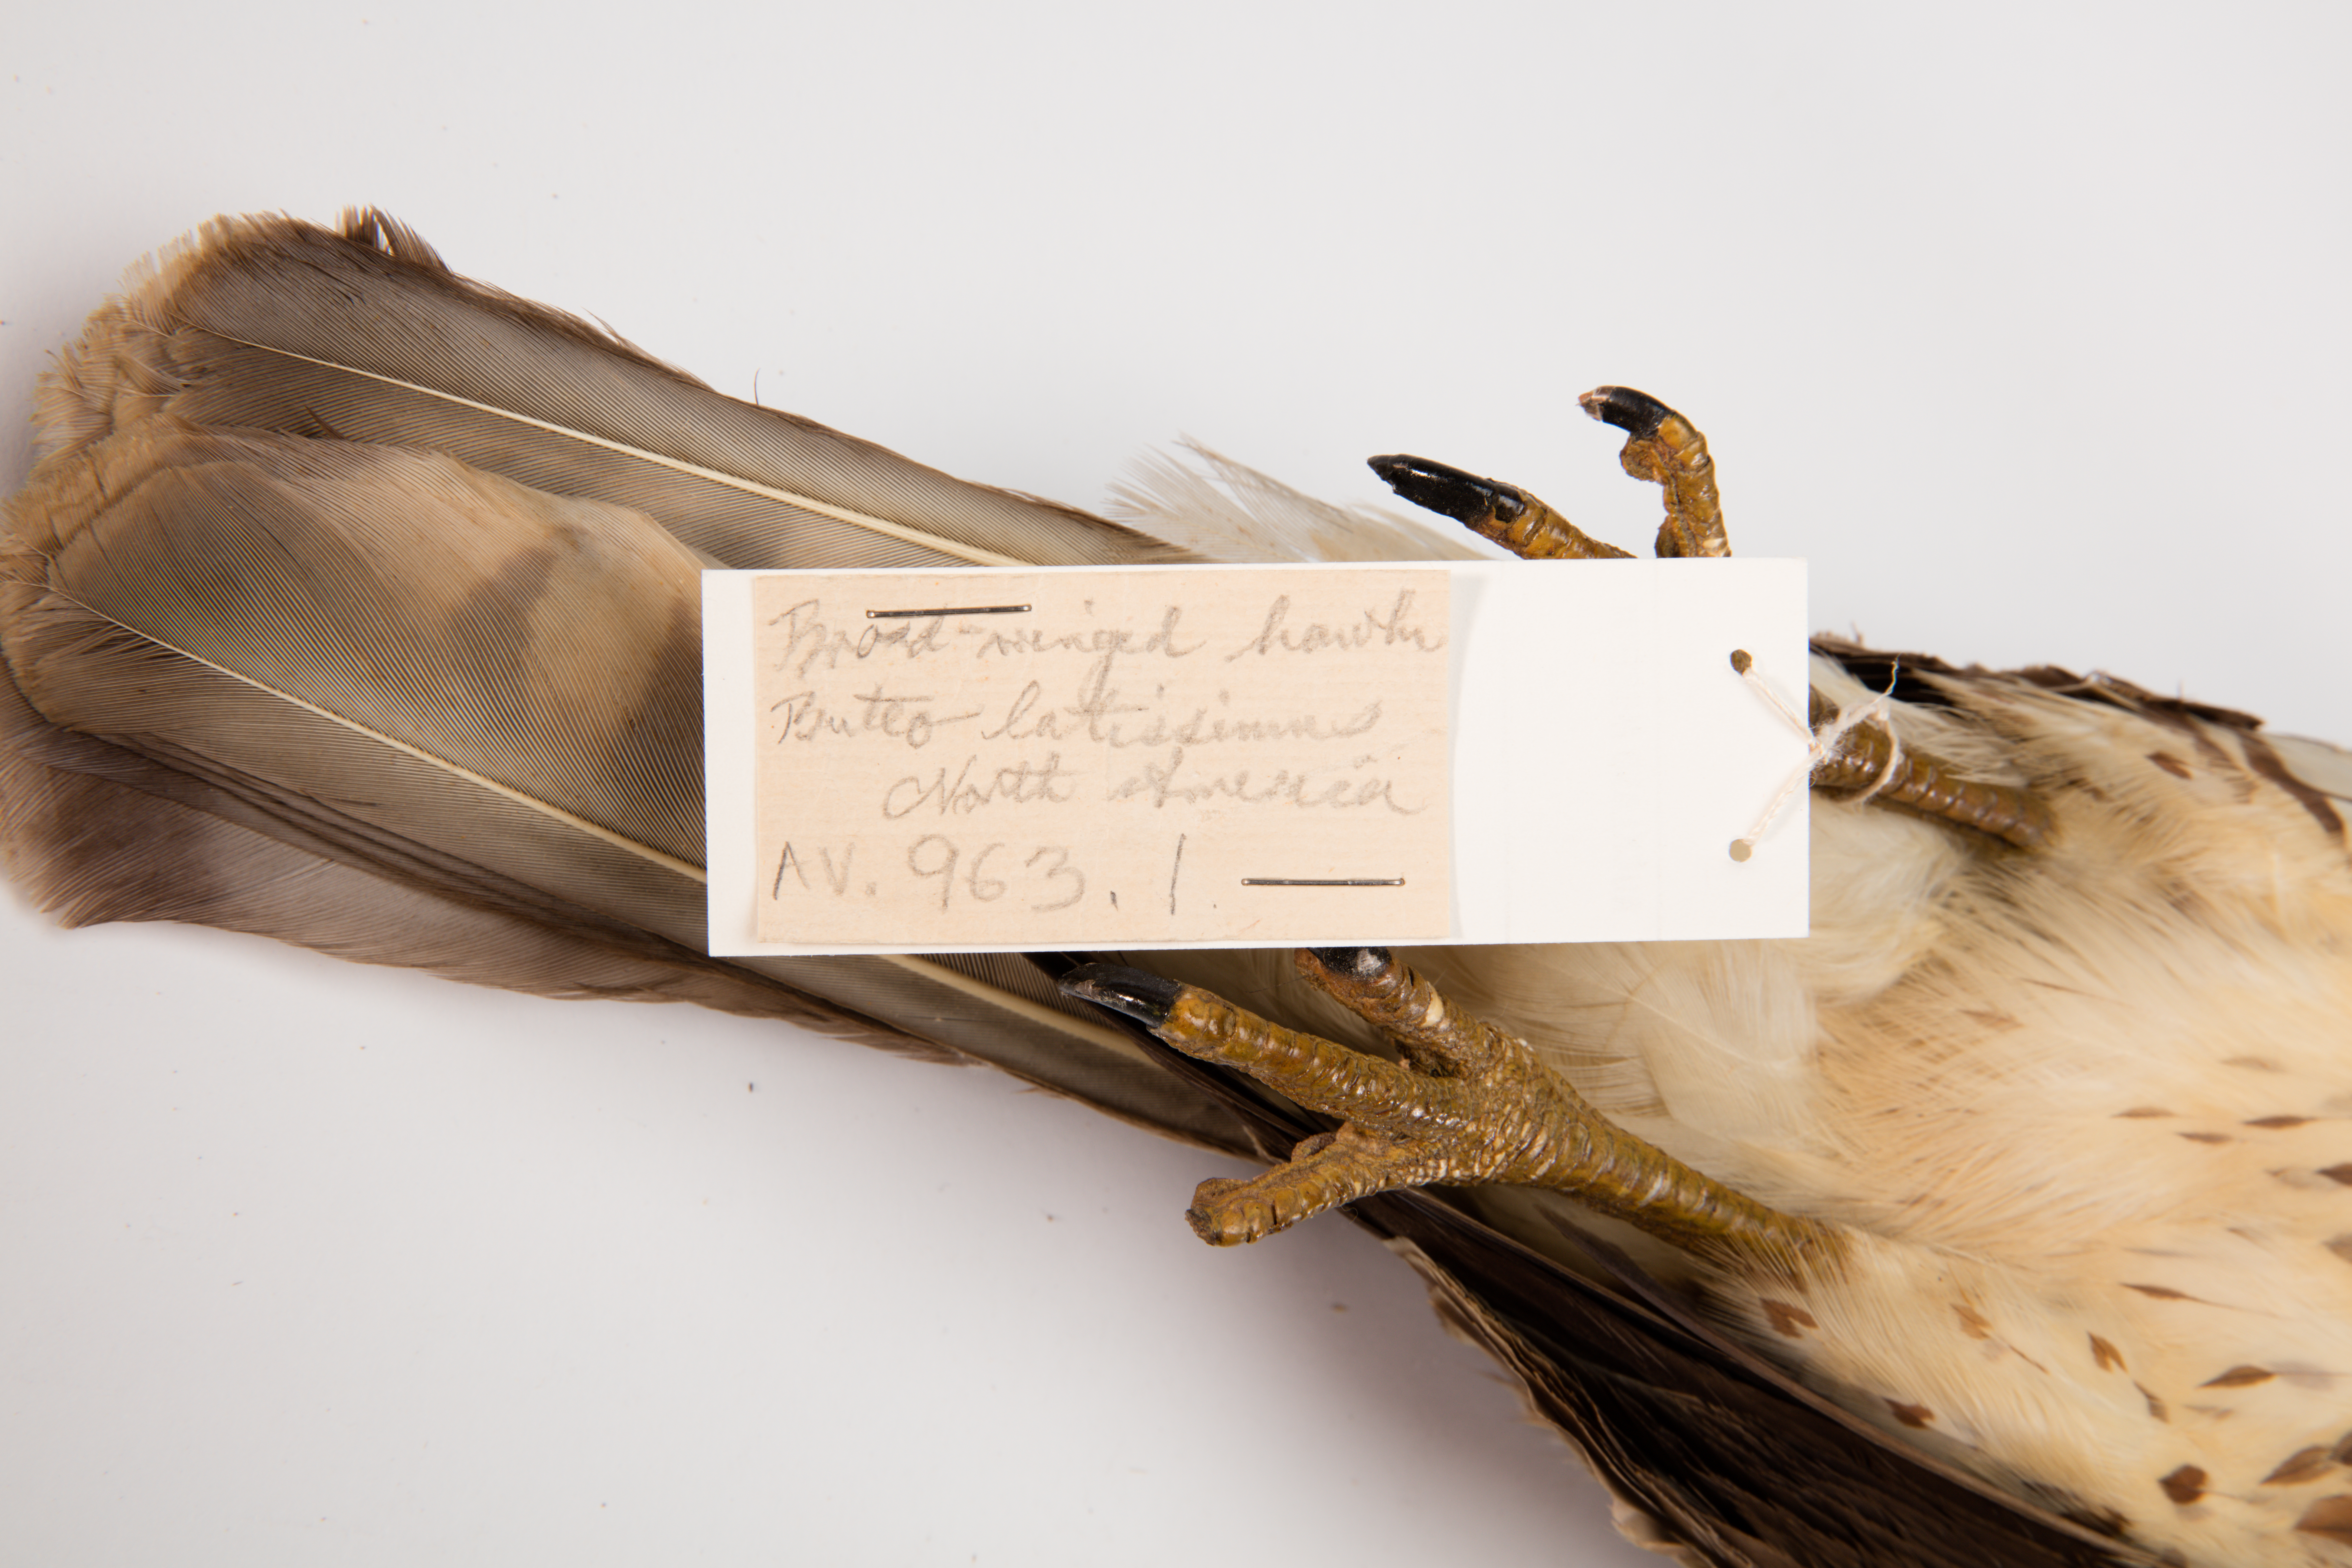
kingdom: Animalia
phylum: Chordata
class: Aves
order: Accipitriformes
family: Accipitridae
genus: Buteo
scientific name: Buteo platypterus
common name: Broad-winged hawk
